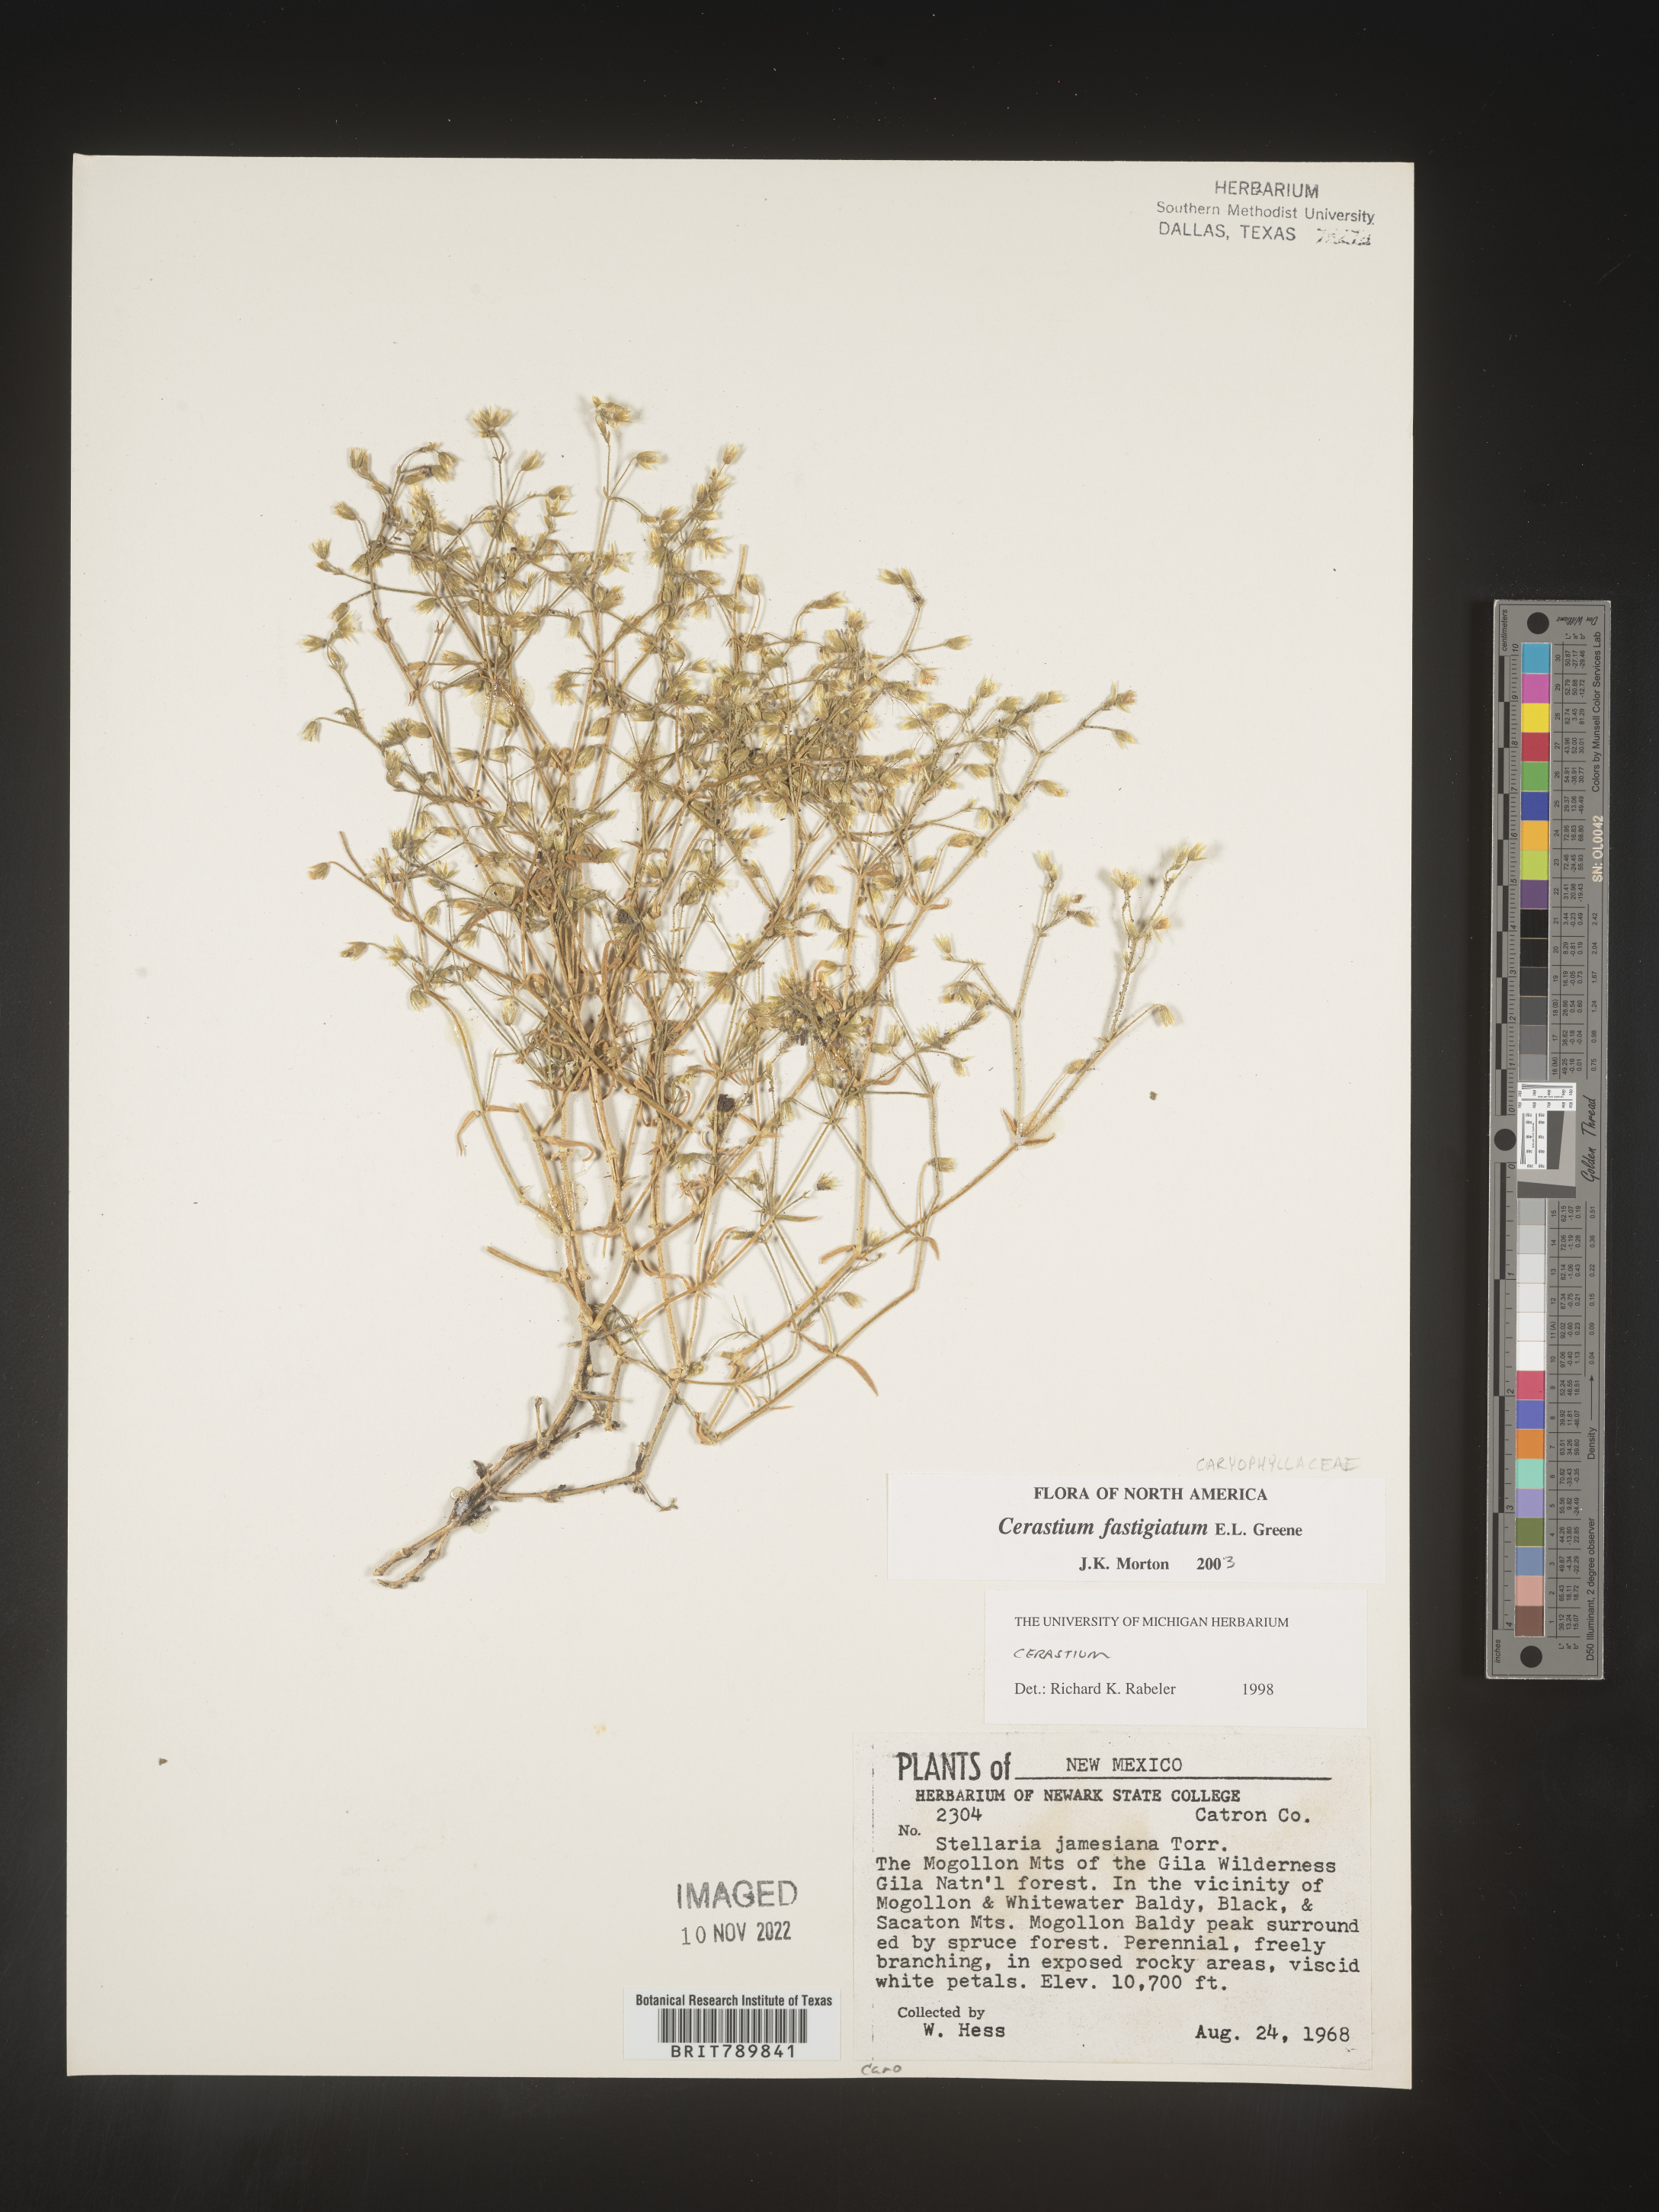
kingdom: Plantae
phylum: Tracheophyta
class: Magnoliopsida
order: Caryophyllales
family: Caryophyllaceae
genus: Cerastium
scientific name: Cerastium fastigiatum
